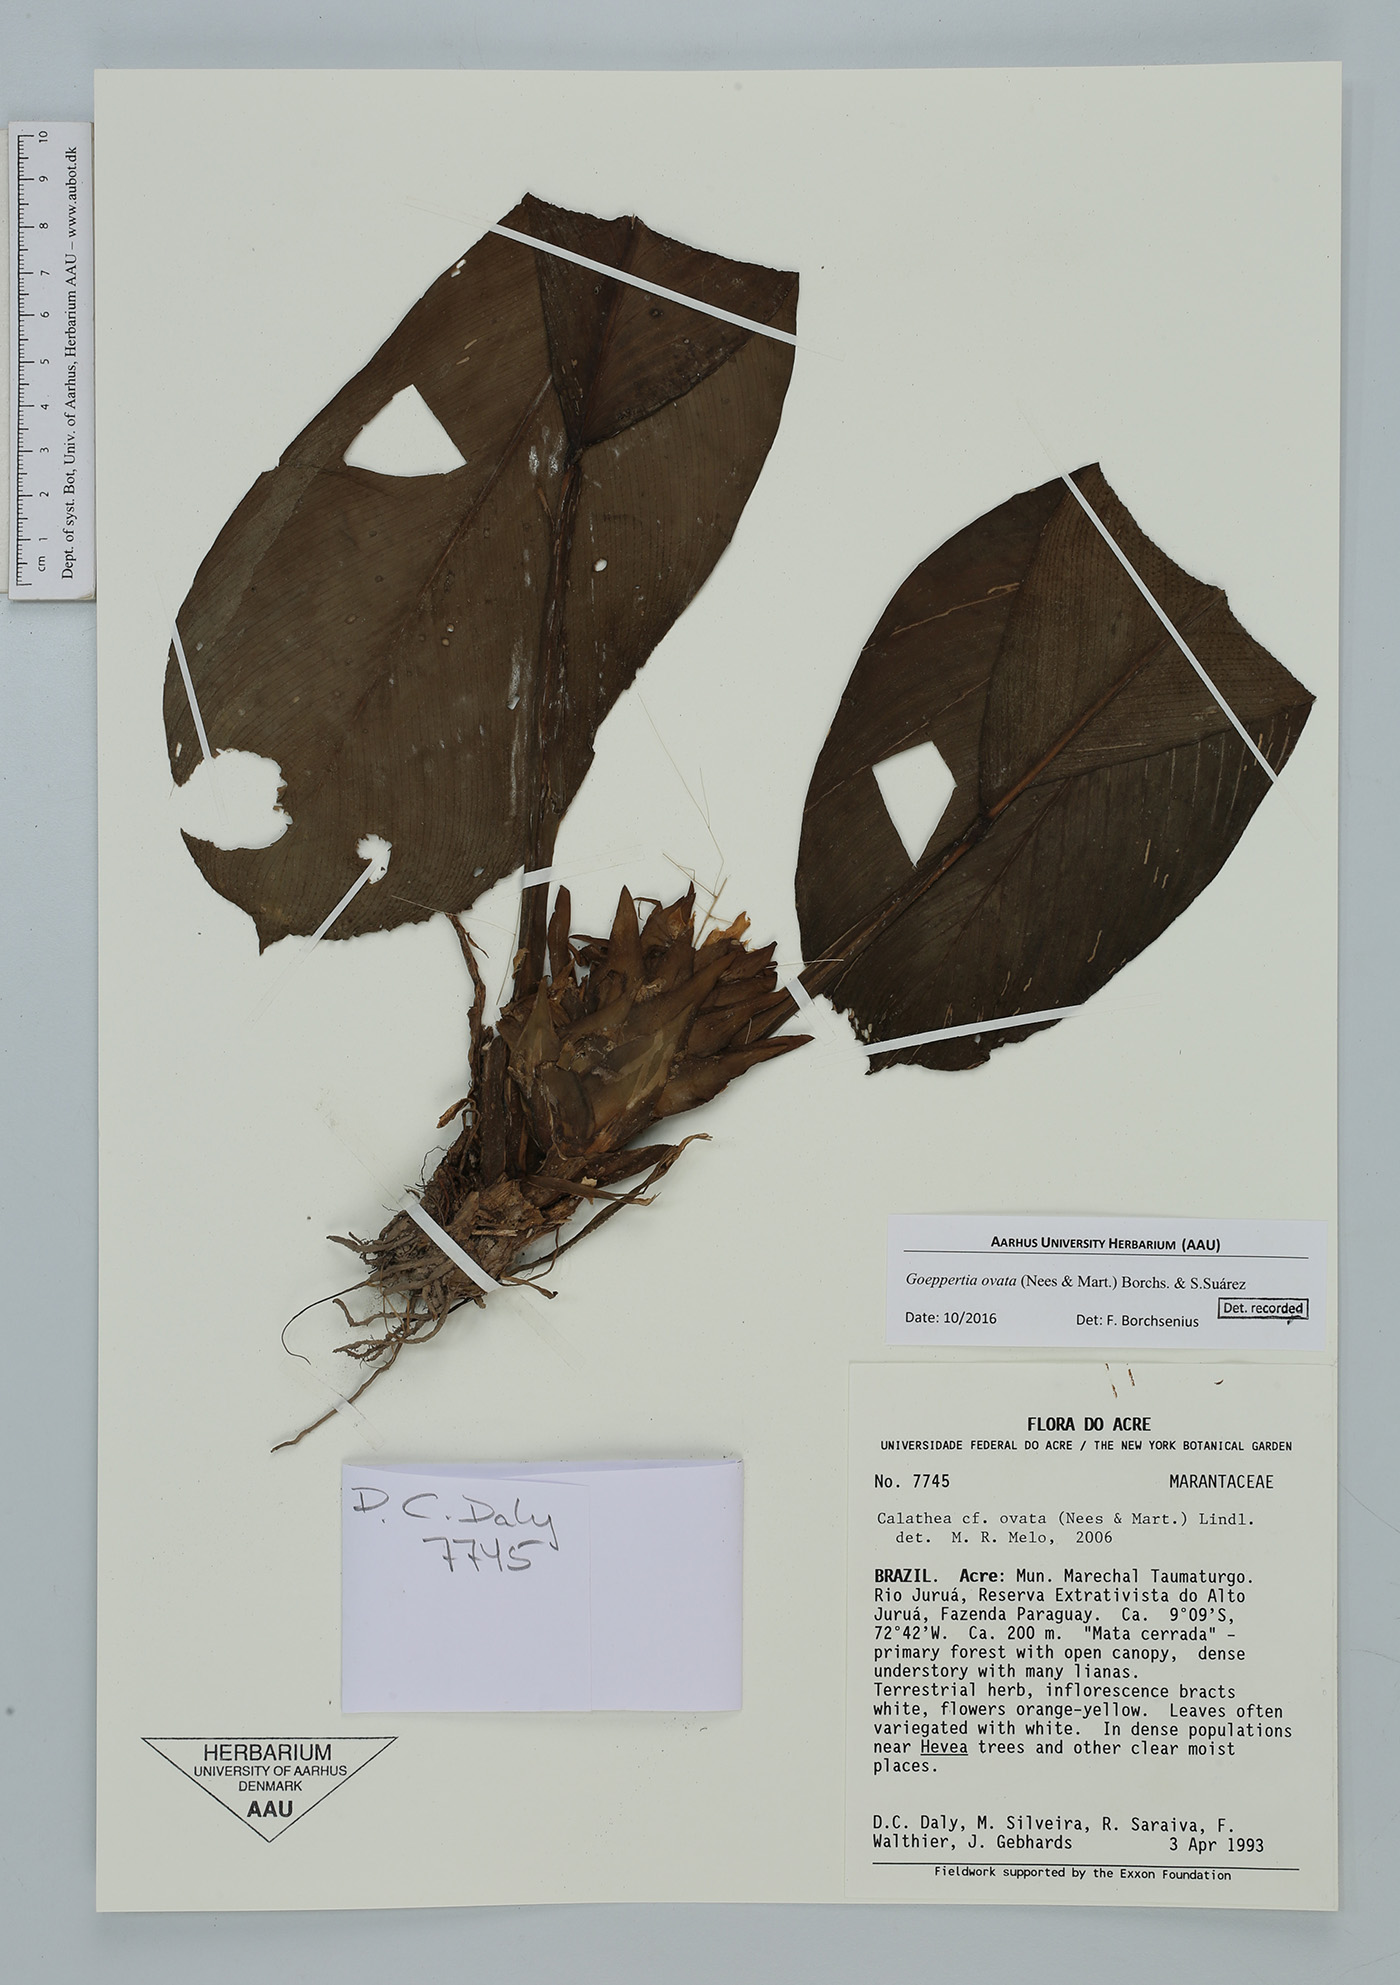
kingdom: Plantae
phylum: Tracheophyta
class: Liliopsida
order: Zingiberales
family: Marantaceae
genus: Goeppertia
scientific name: Goeppertia ovata
